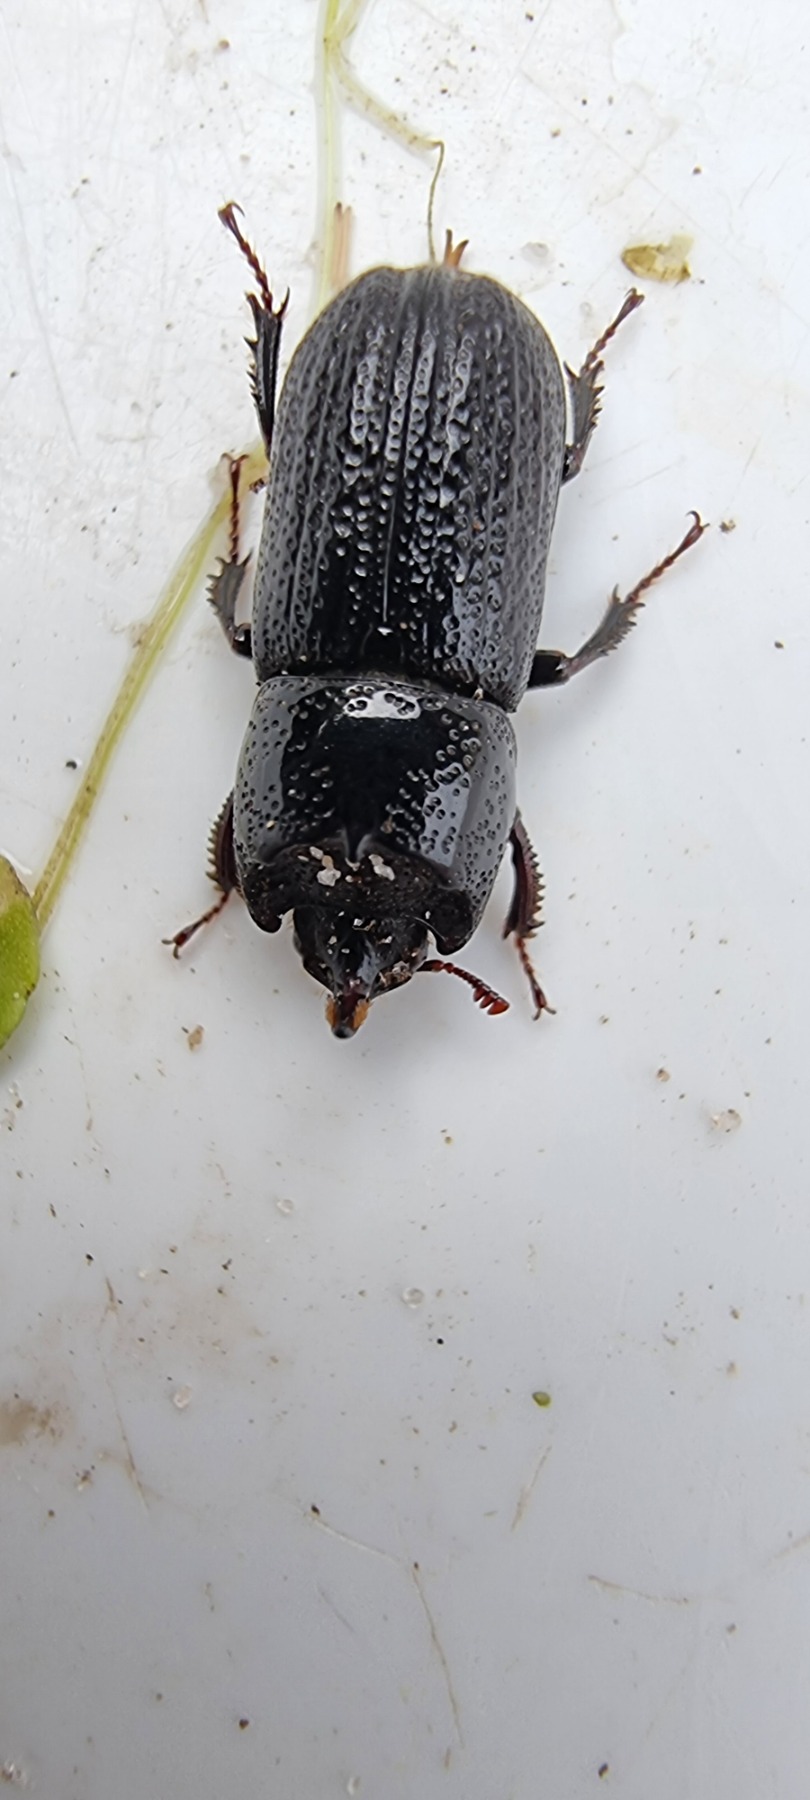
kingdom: Animalia
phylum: Arthropoda
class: Insecta
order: Coleoptera
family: Lucanidae
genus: Sinodendron
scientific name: Sinodendron cylindricum
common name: Valsehjort
